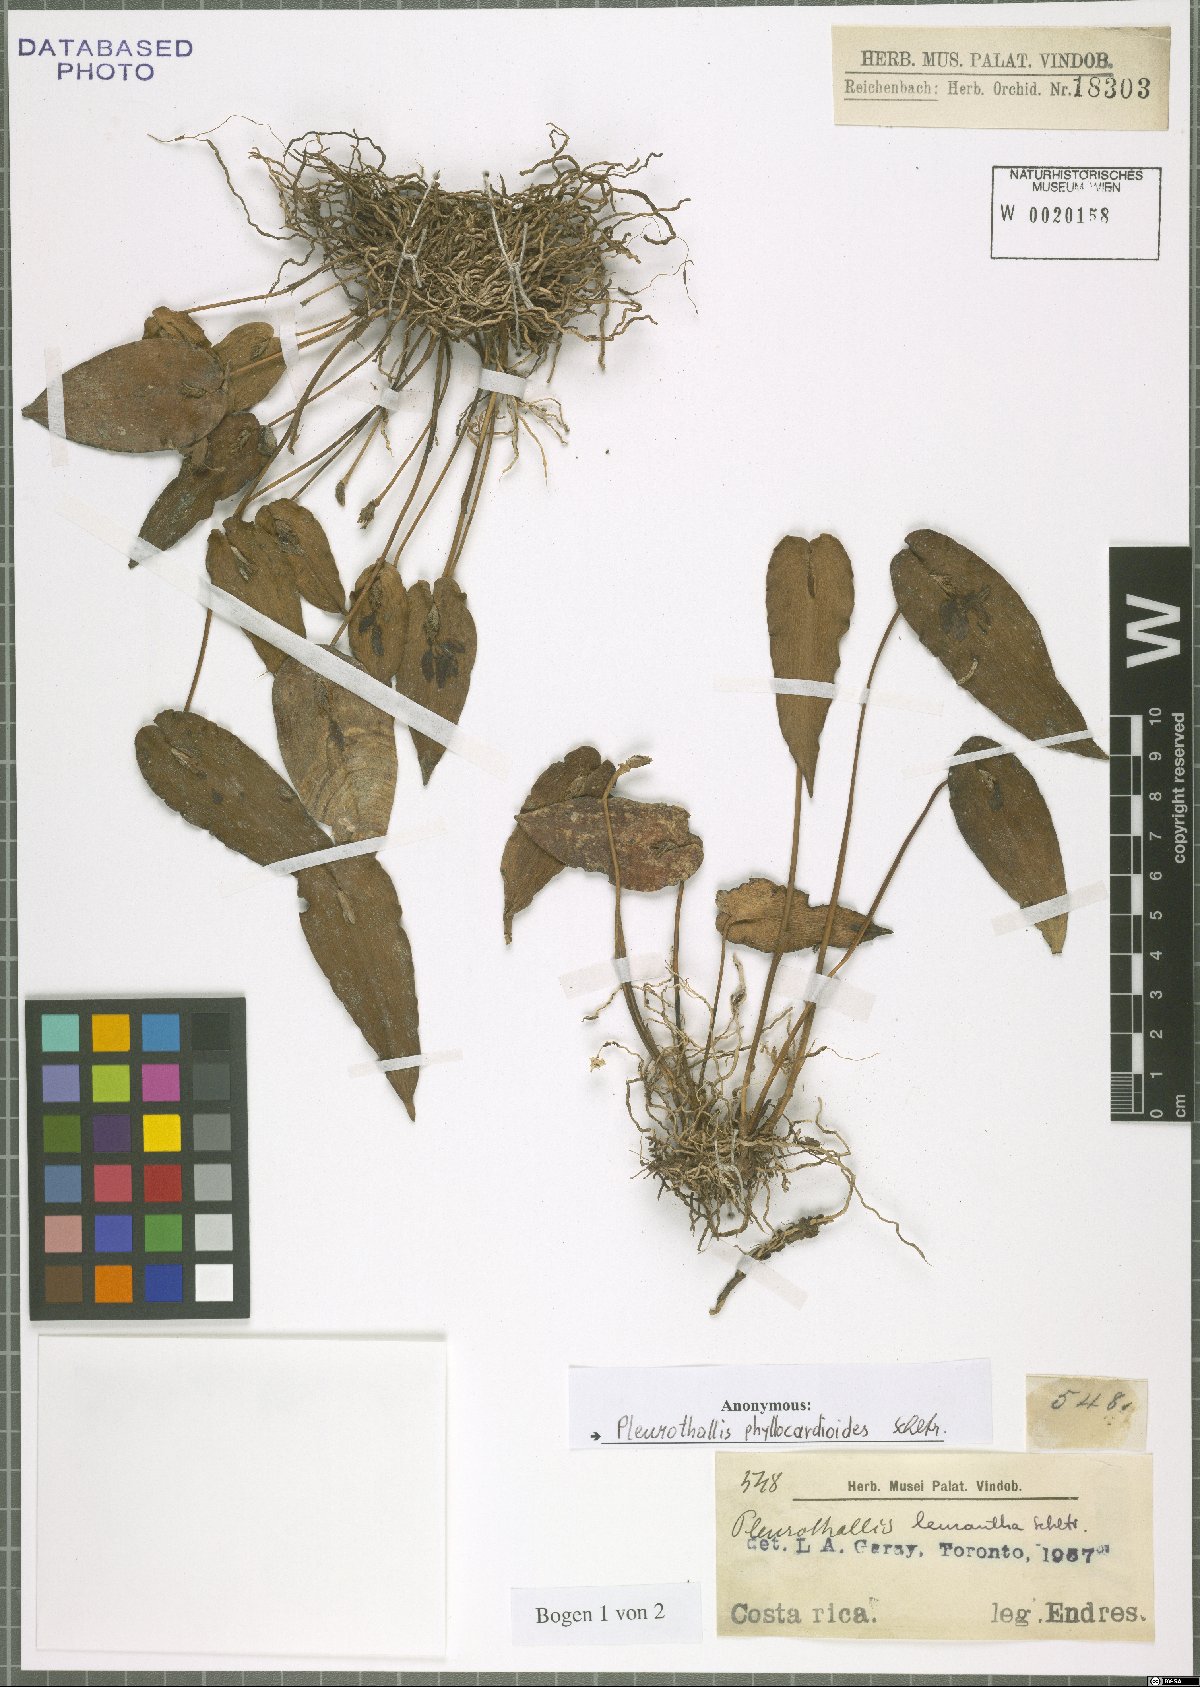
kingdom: Plantae
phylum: Tracheophyta
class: Liliopsida
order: Asparagales
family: Orchidaceae
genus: Pleurothallis
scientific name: Pleurothallis phyllocardioides
